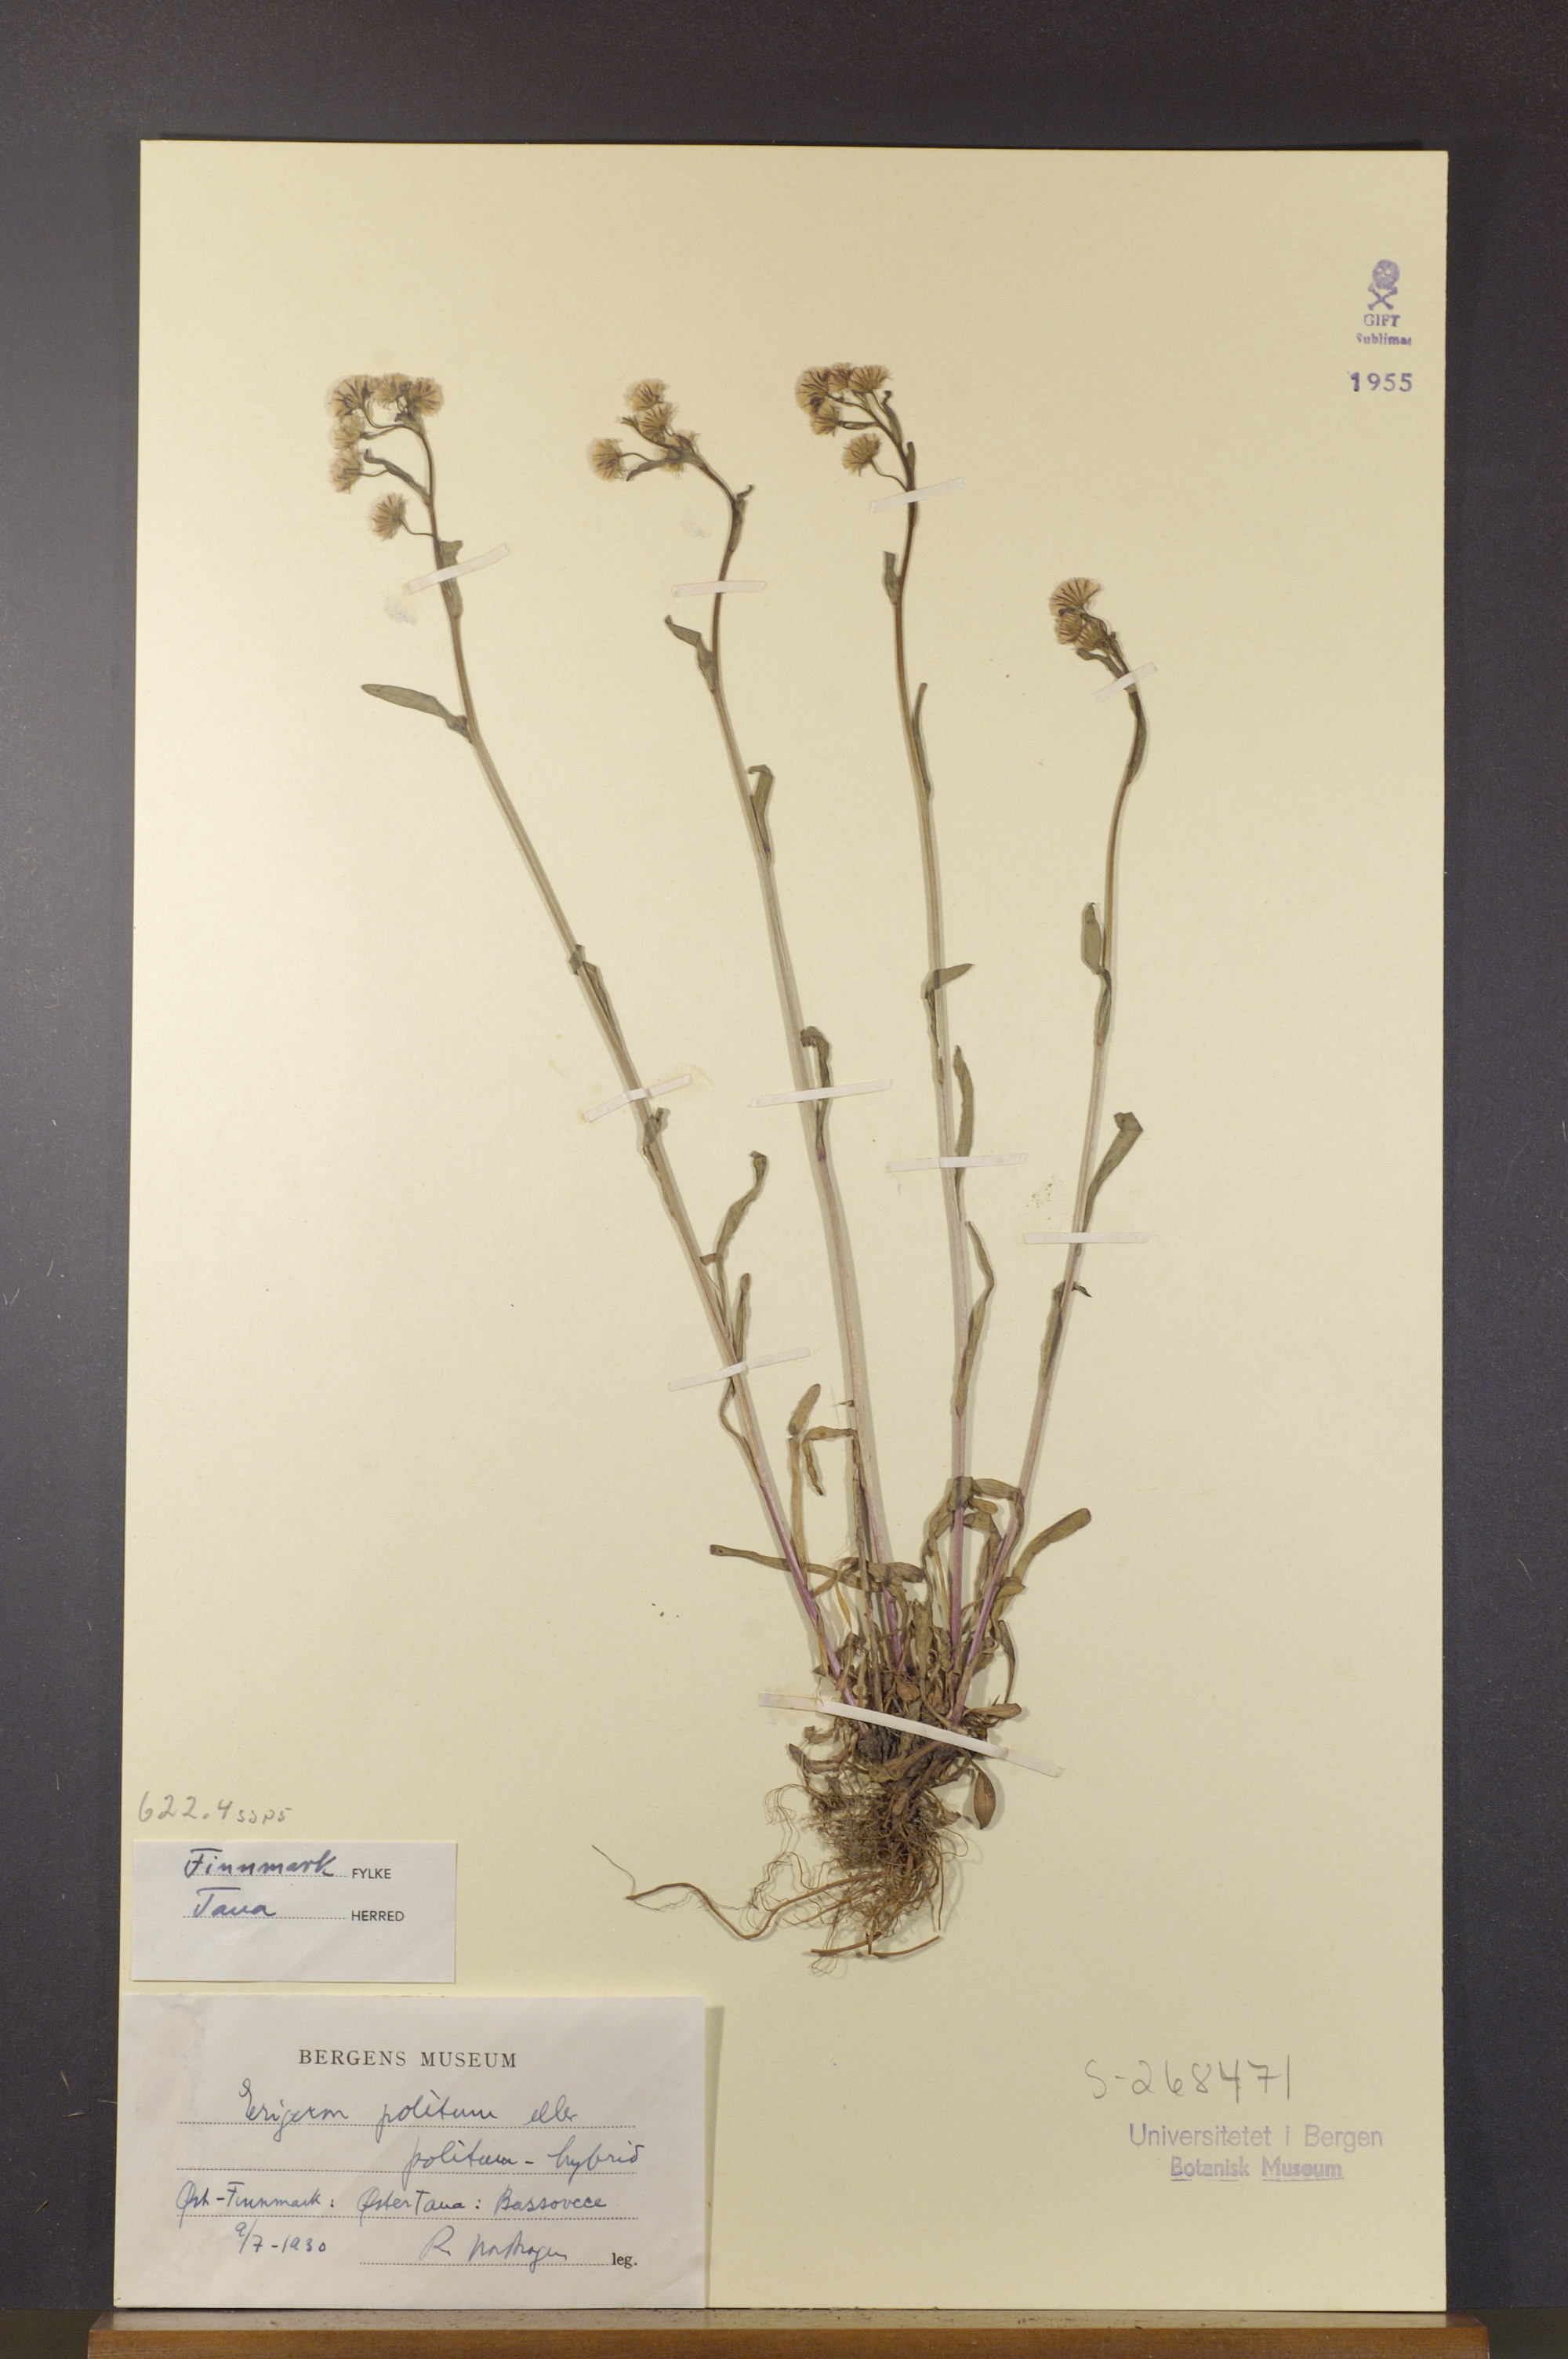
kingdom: Plantae
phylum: Tracheophyta
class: Magnoliopsida
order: Asterales
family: Asteraceae
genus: Erigeron
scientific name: Erigeron politus
